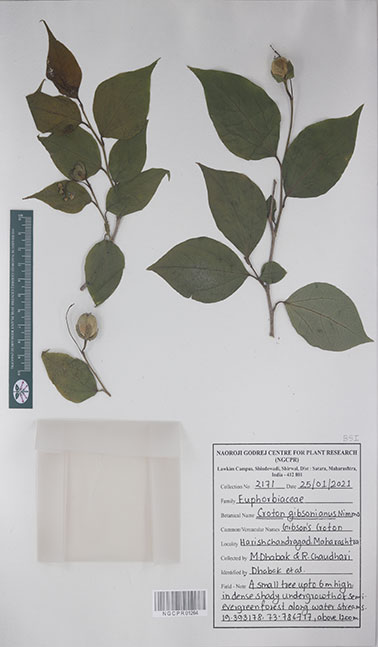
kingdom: Plantae
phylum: Tracheophyta
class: Magnoliopsida
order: Malpighiales
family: Euphorbiaceae
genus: Croton
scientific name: Croton gibsonianus
